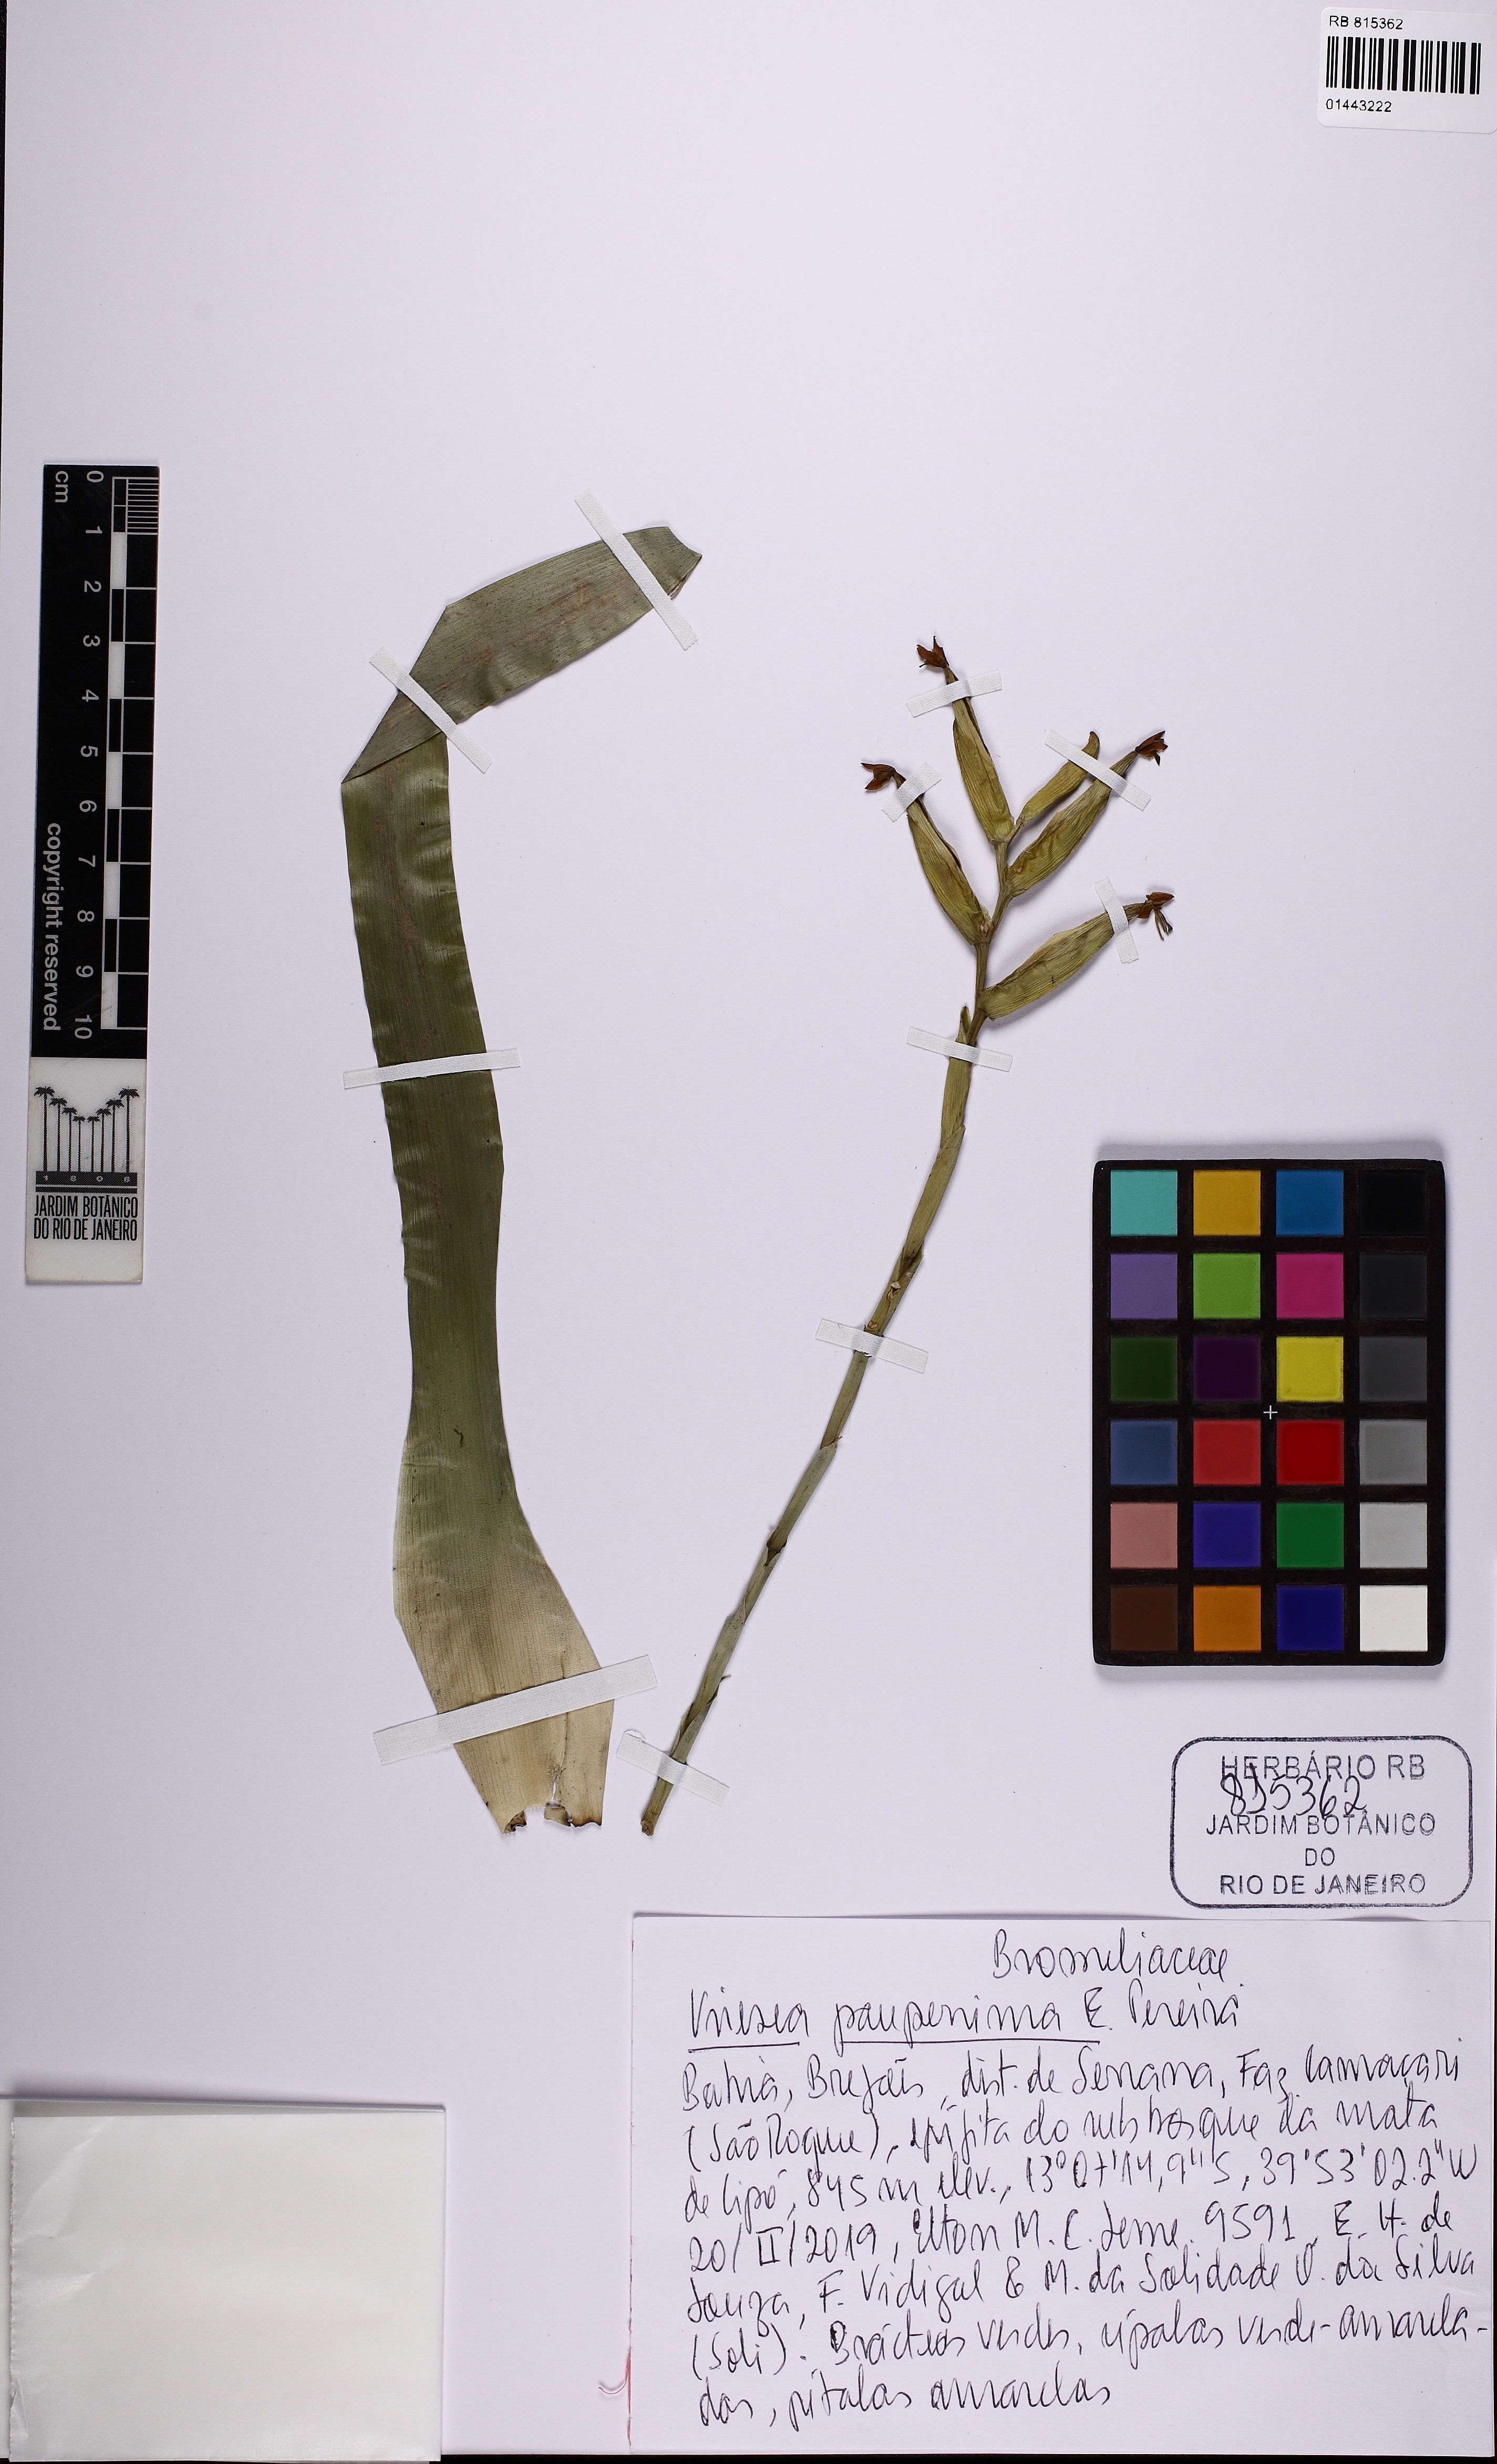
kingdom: Plantae
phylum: Tracheophyta
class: Liliopsida
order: Poales
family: Bromeliaceae
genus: Vriesea
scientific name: Vriesea pauperrima
